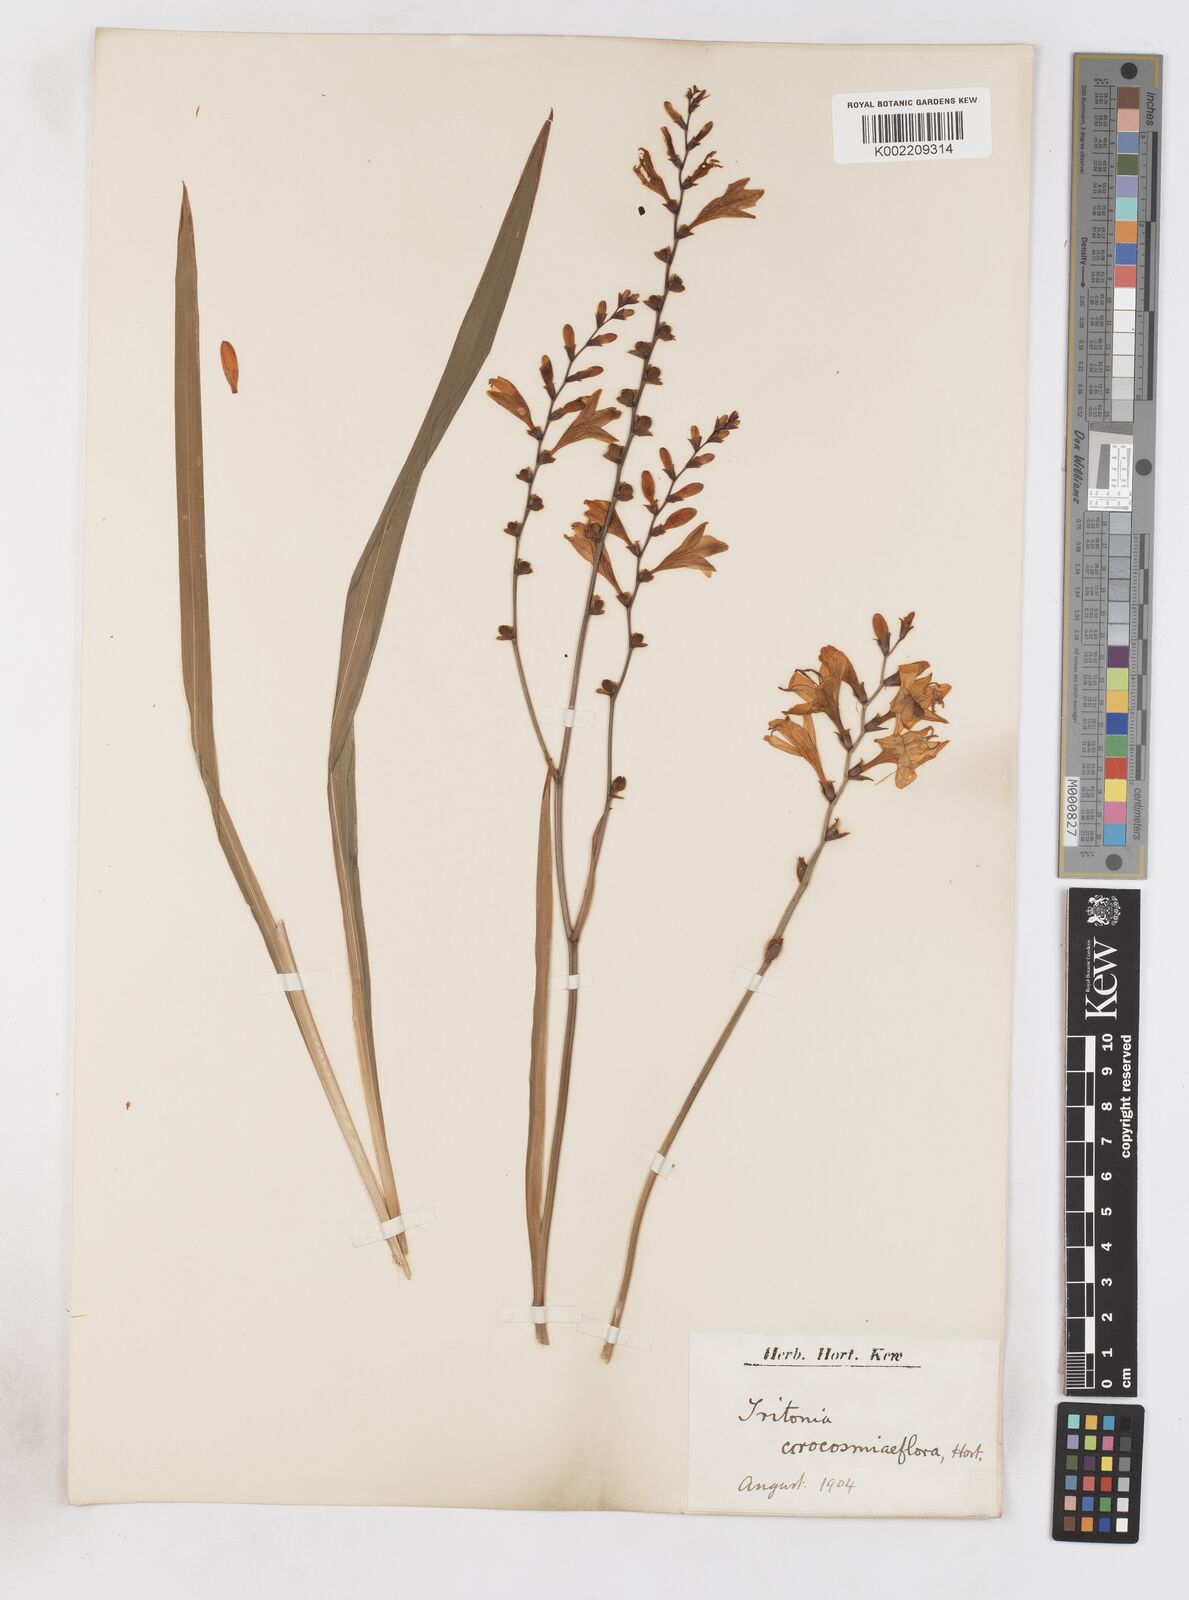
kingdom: Plantae
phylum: Tracheophyta
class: Liliopsida
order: Asparagales
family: Iridaceae
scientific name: Iridaceae
